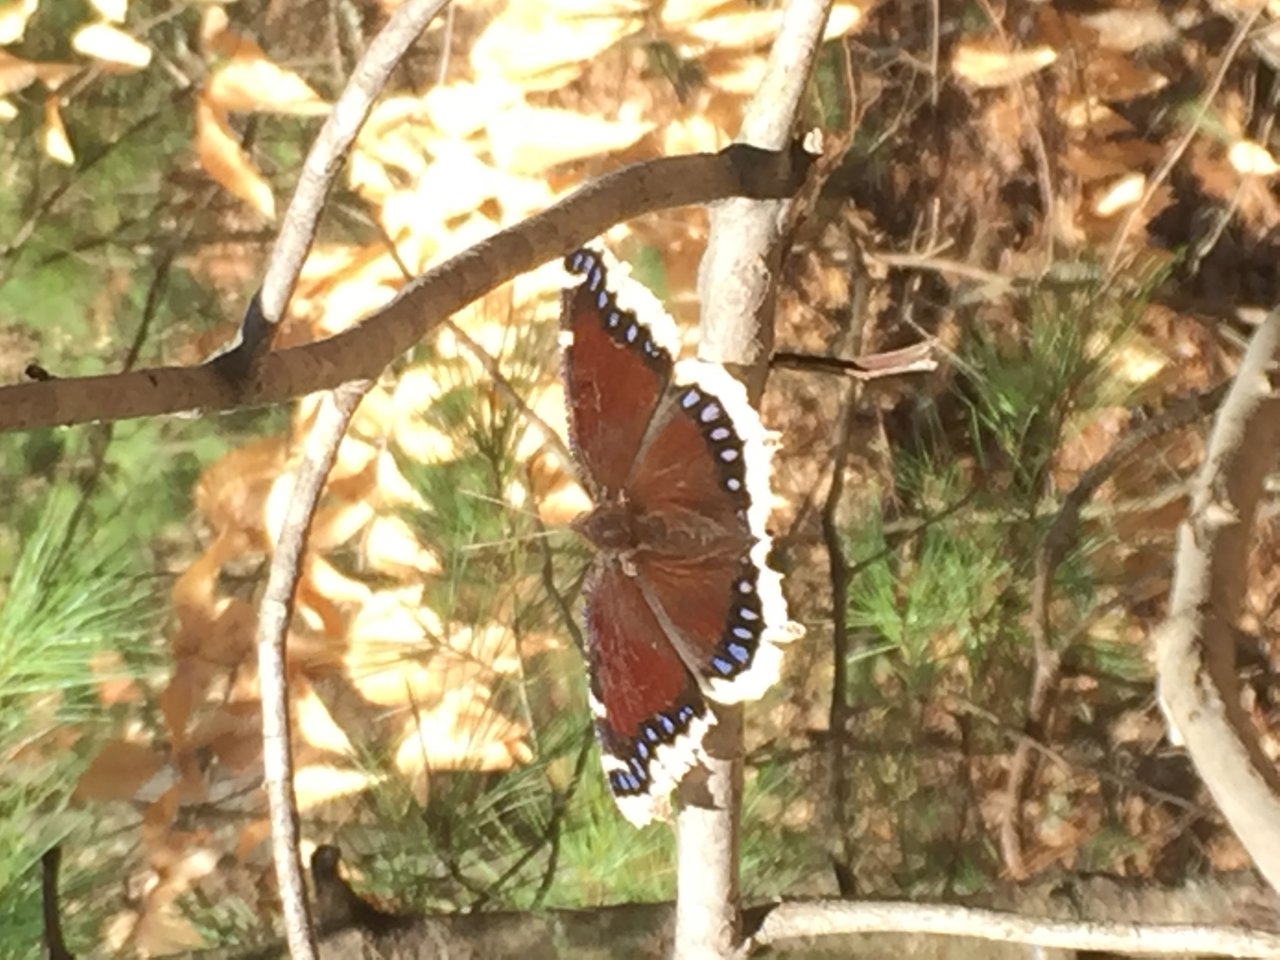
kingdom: Animalia
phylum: Arthropoda
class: Insecta
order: Lepidoptera
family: Nymphalidae
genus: Nymphalis
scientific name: Nymphalis antiopa
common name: Mourning Cloak
